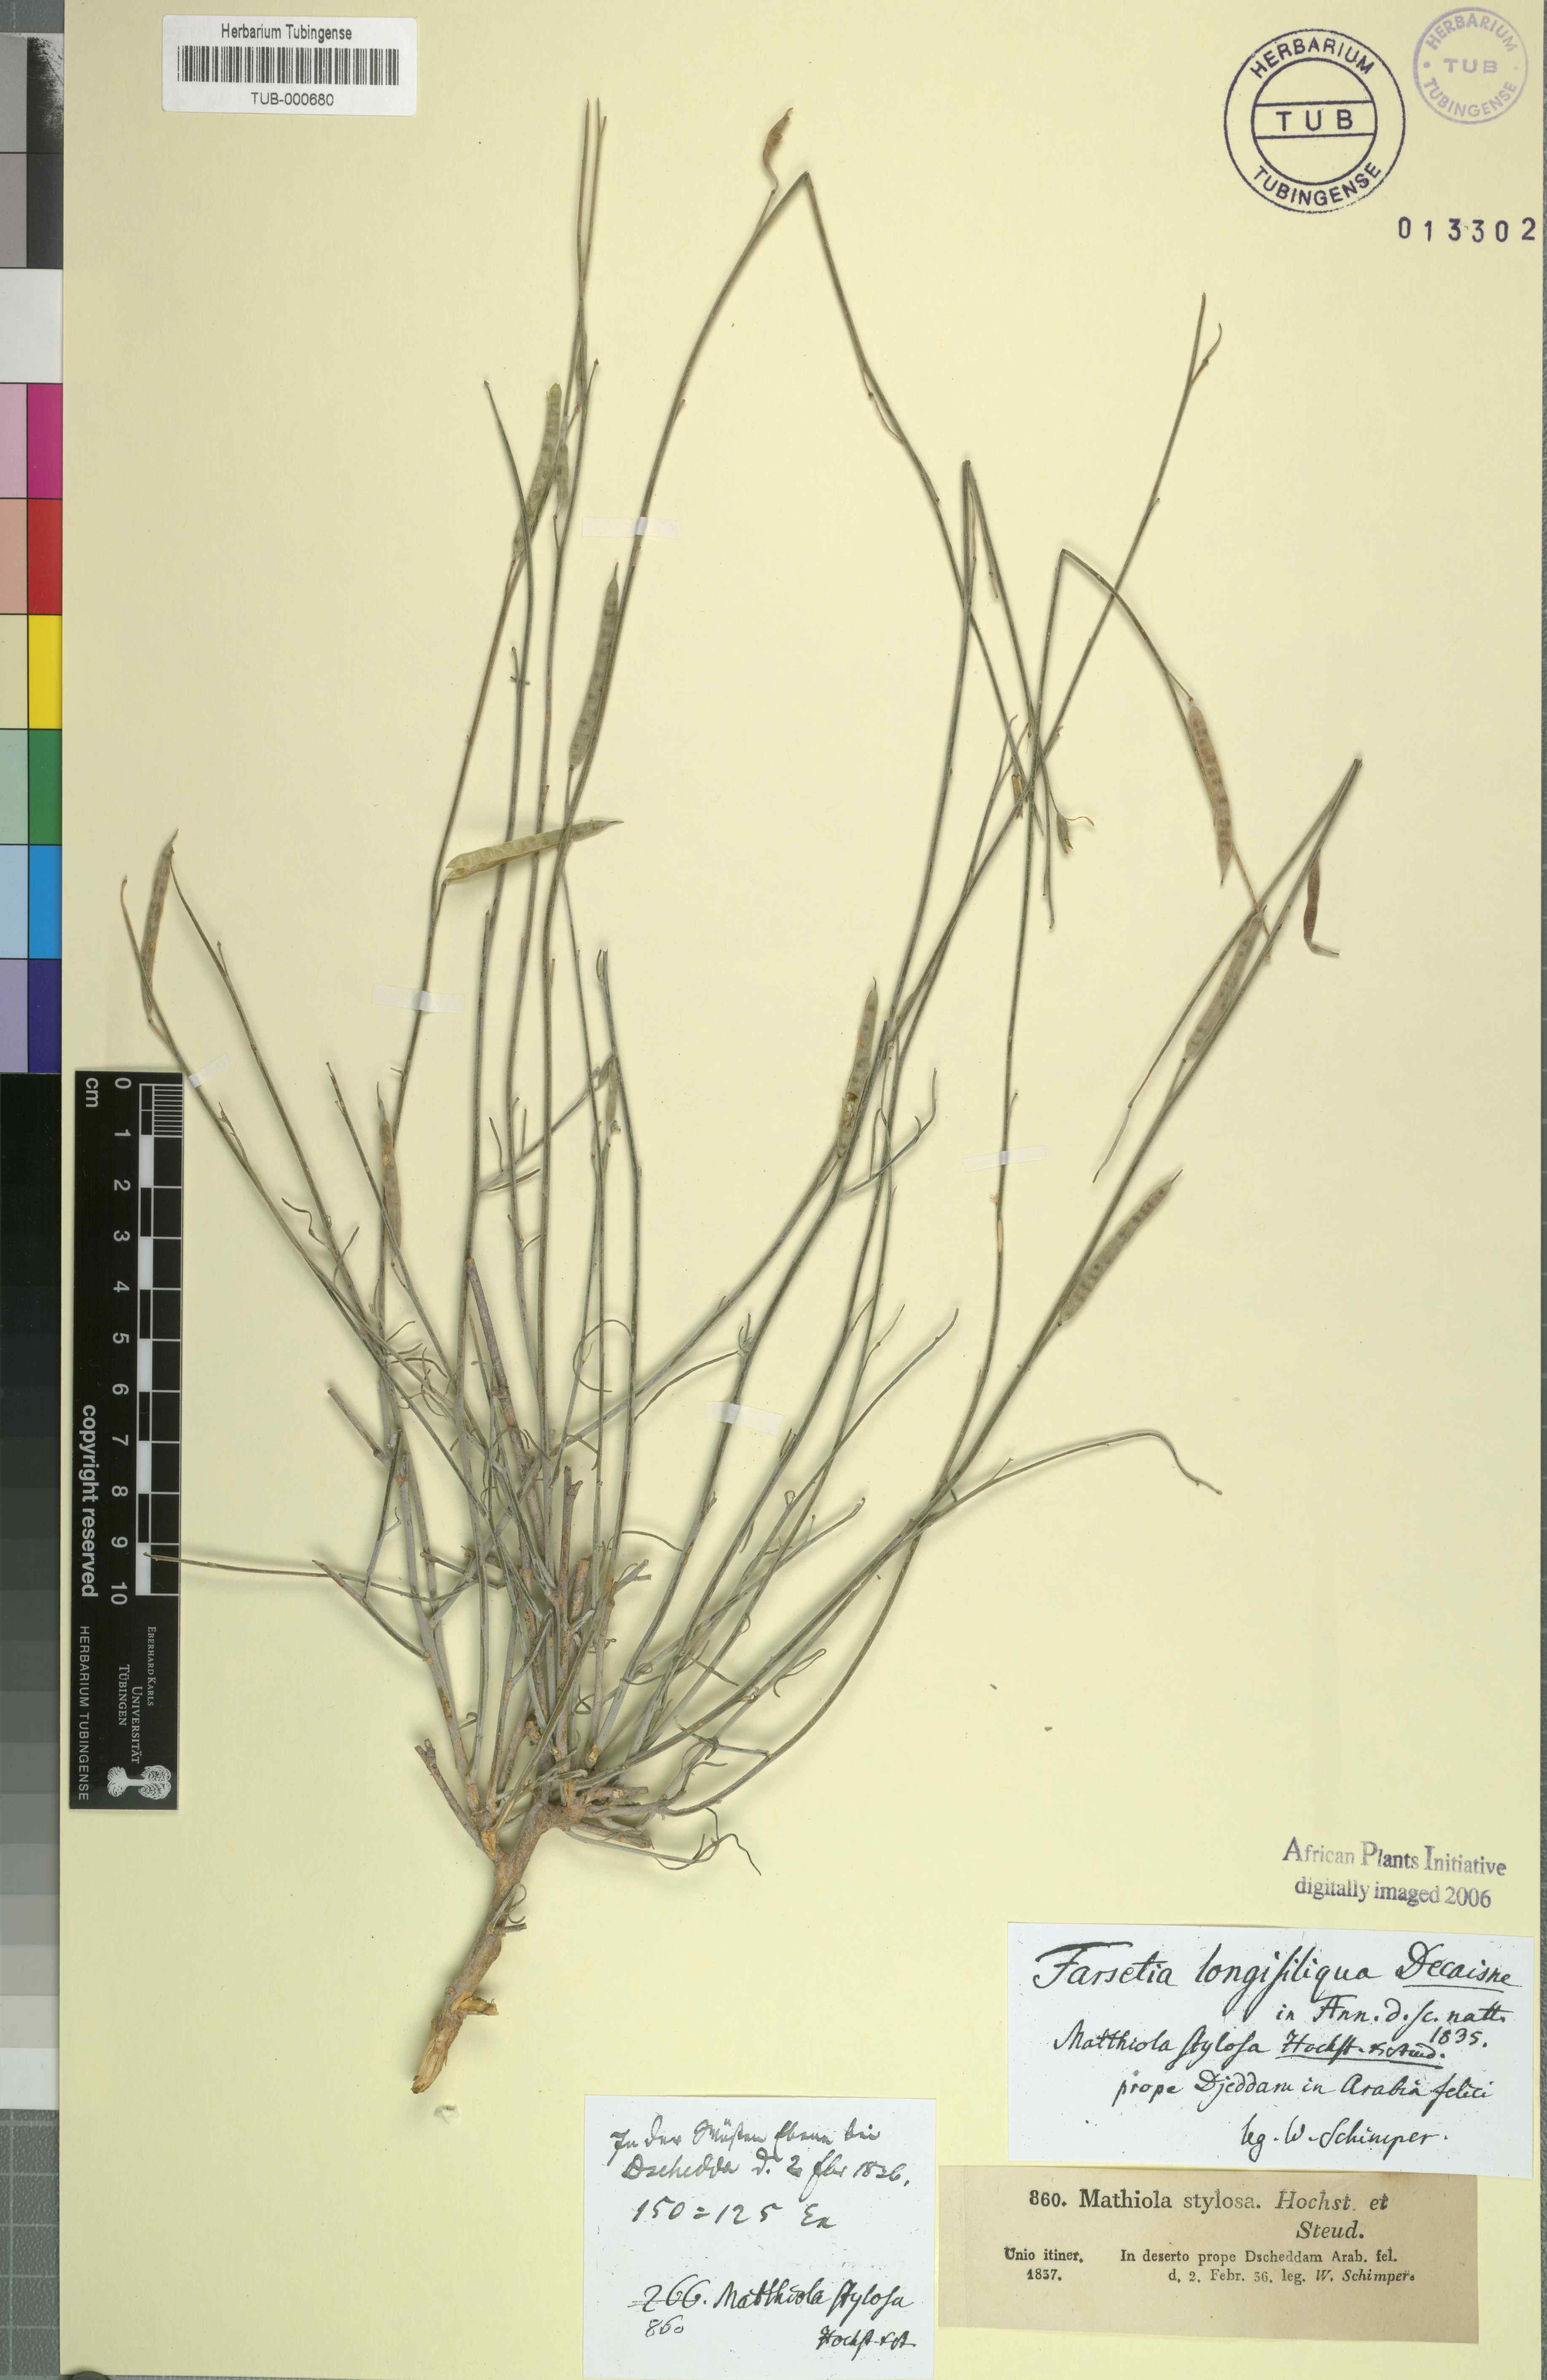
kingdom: Plantae
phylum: Tracheophyta
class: Magnoliopsida
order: Brassicales
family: Brassicaceae
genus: Farsetia
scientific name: Farsetia stylosa
